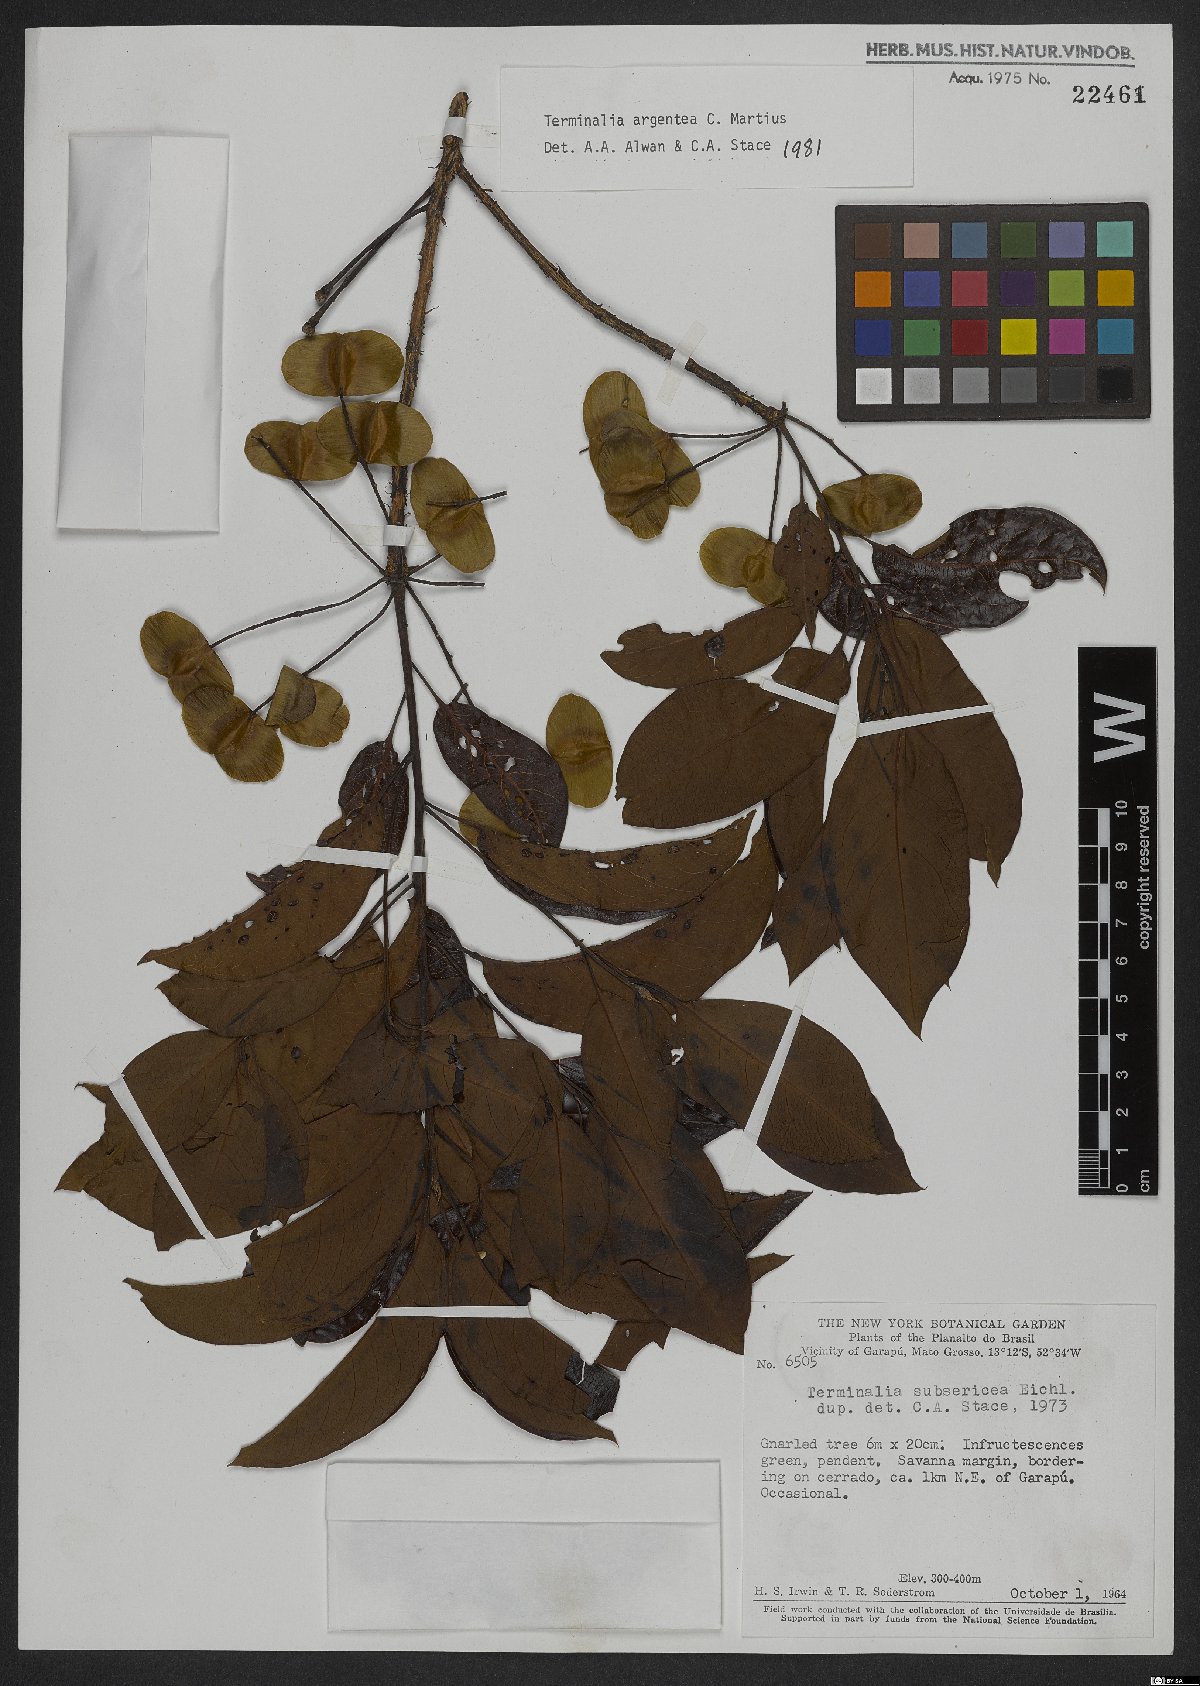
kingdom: Plantae
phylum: Tracheophyta
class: Magnoliopsida
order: Myrtales
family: Combretaceae
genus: Terminalia
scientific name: Terminalia argentea
